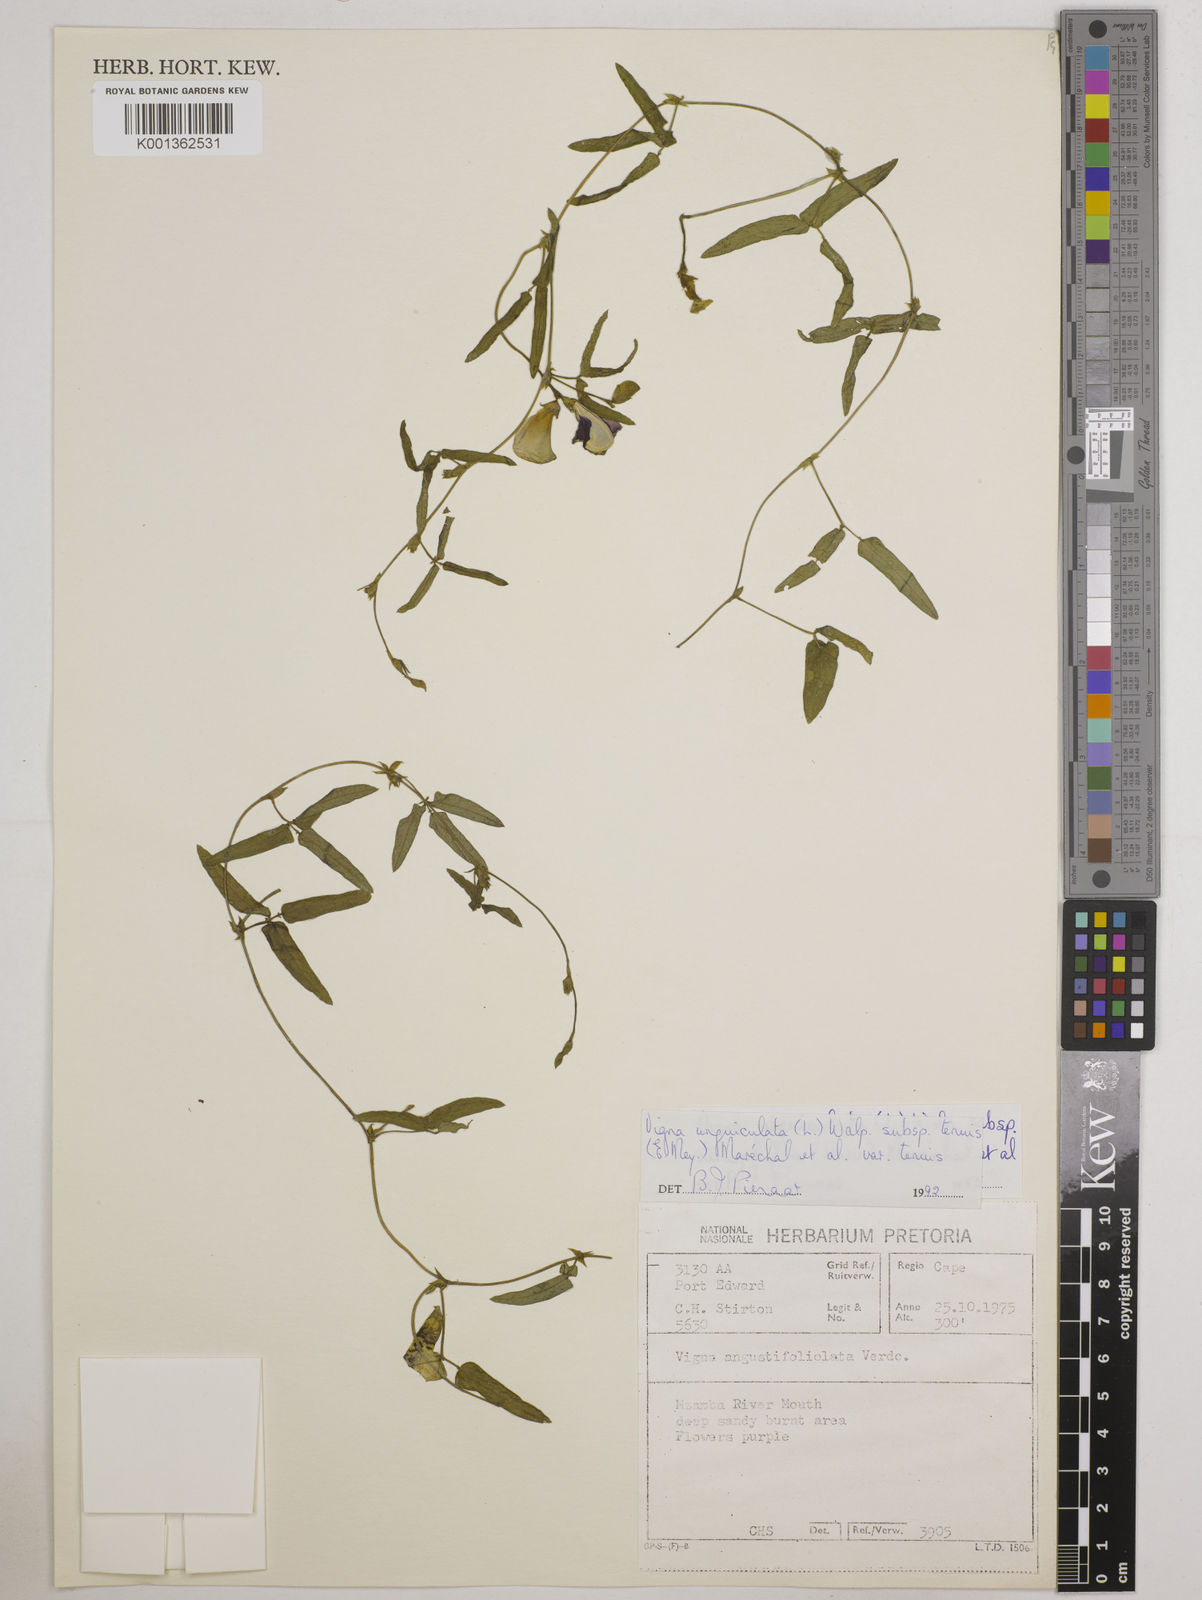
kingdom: Plantae
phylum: Tracheophyta
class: Magnoliopsida
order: Fabales
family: Fabaceae
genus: Vigna
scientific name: Vigna unguiculata
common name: Cowpea
